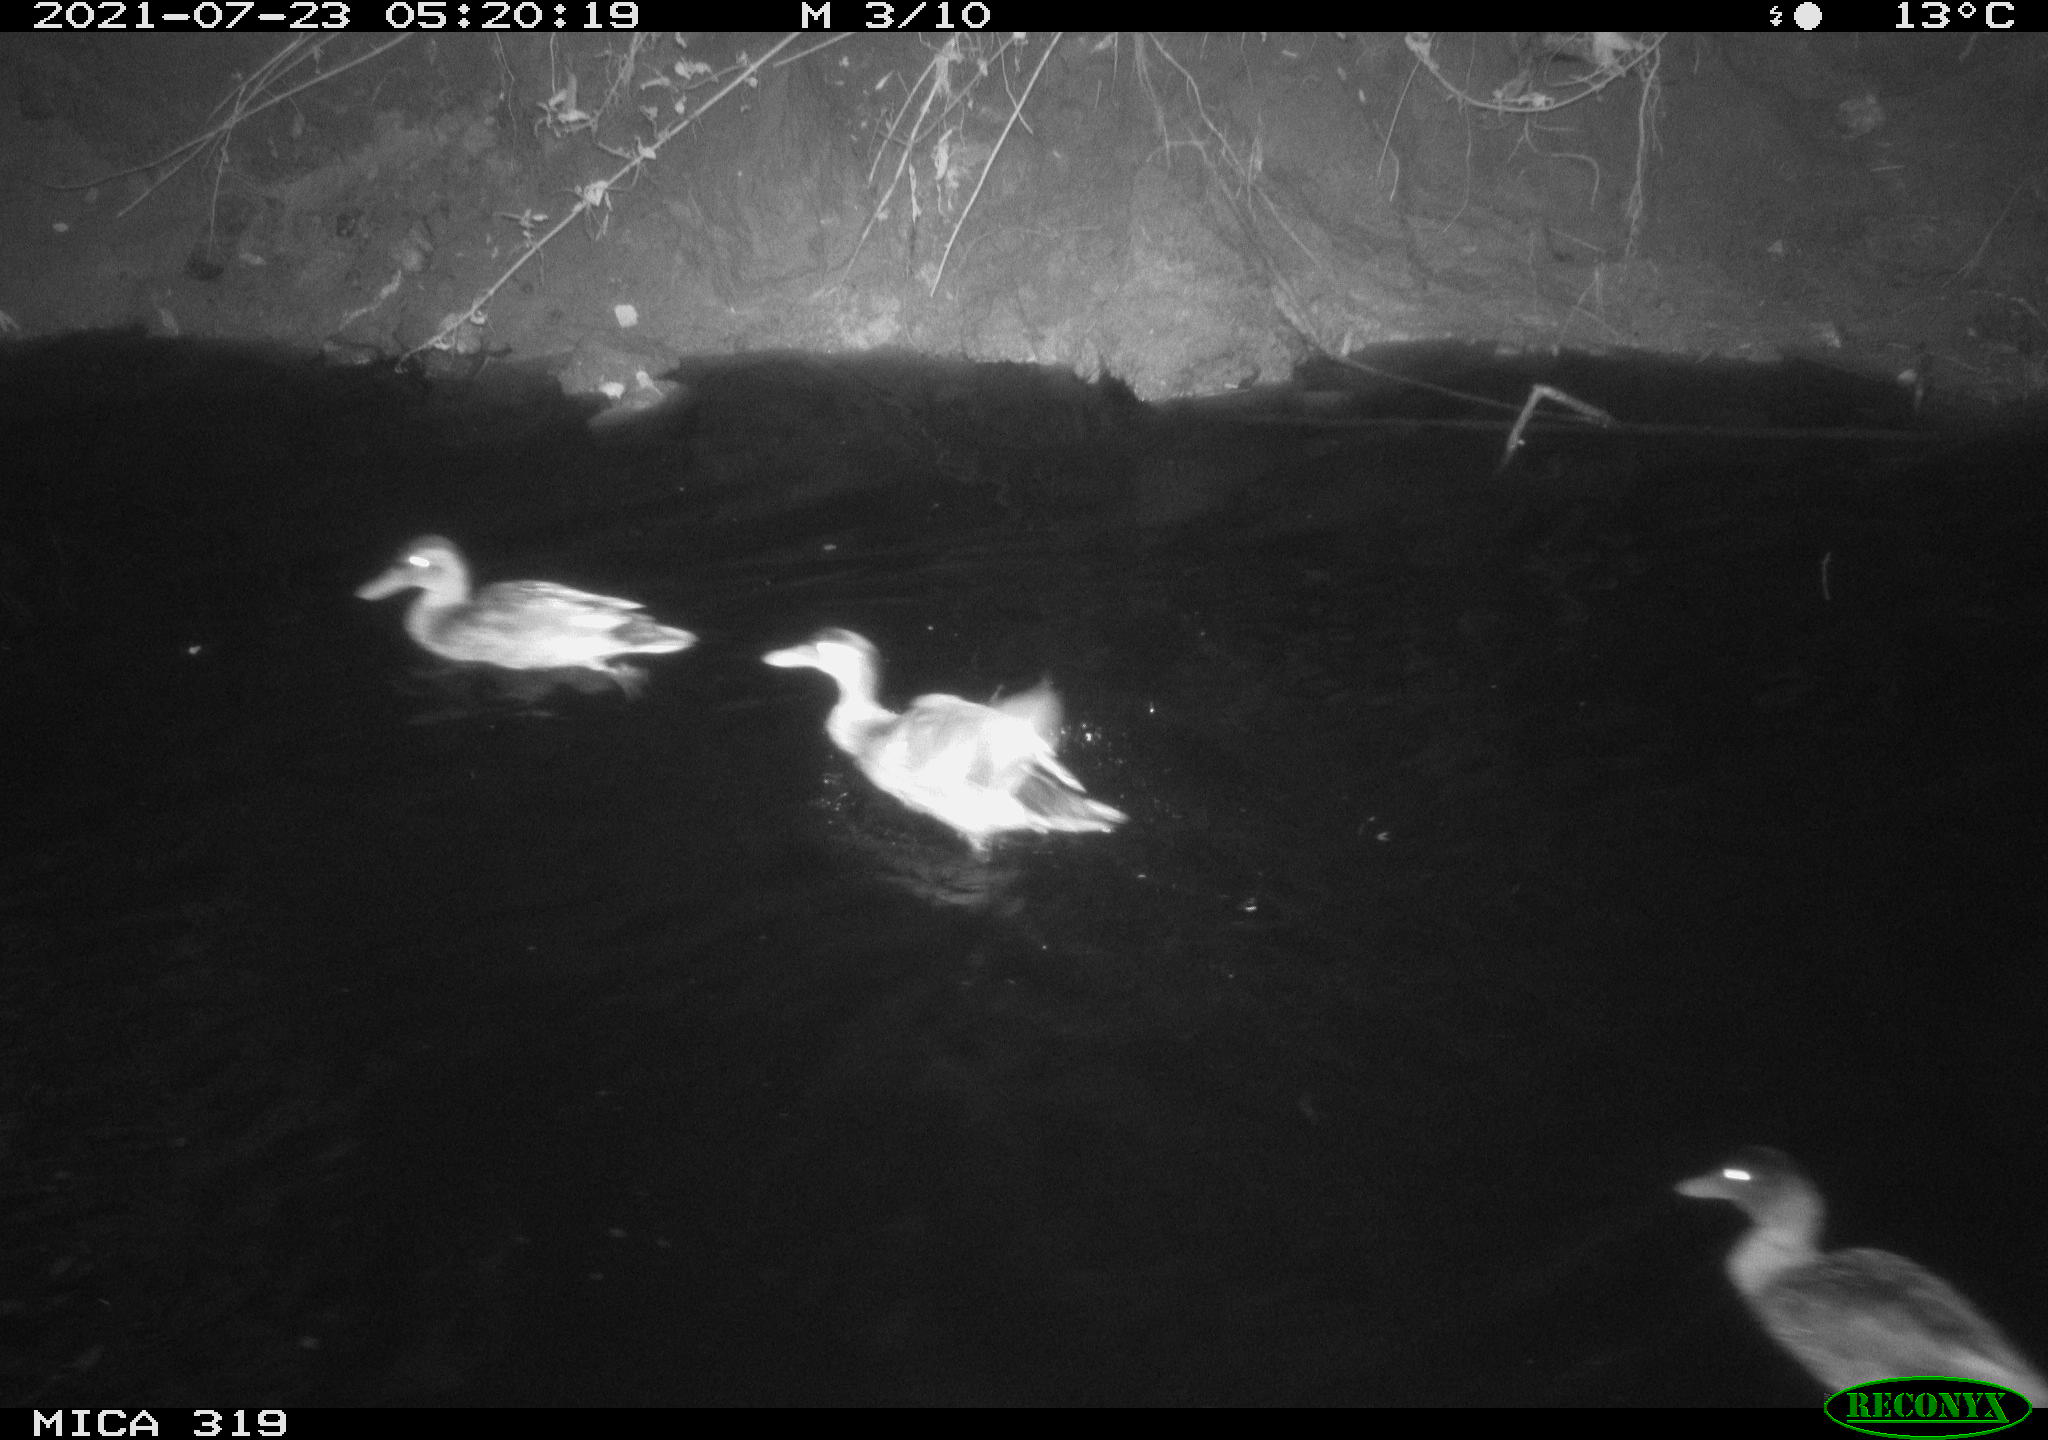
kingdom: Animalia
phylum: Chordata
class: Aves
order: Anseriformes
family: Anatidae
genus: Anas
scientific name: Anas platyrhynchos
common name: Mallard
